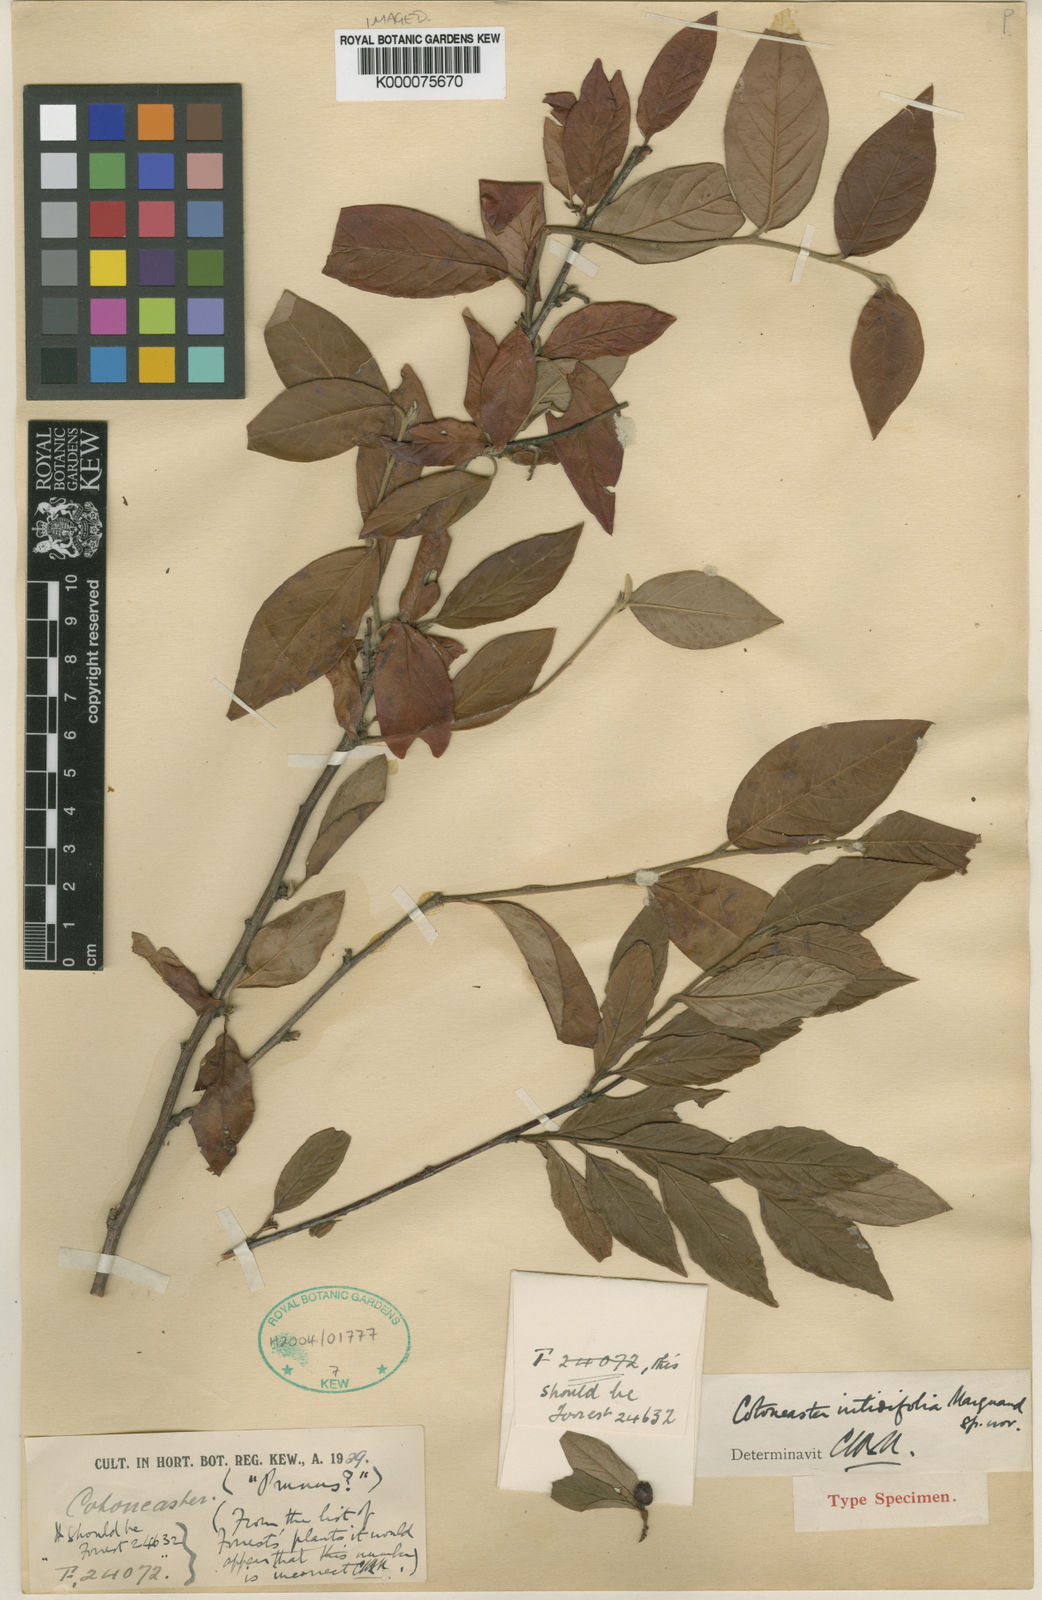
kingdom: Plantae
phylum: Tracheophyta
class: Magnoliopsida
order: Rosales
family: Rosaceae
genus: Cotoneaster
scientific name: Cotoneaster bullatus
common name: Hollyberry cotoneaster
